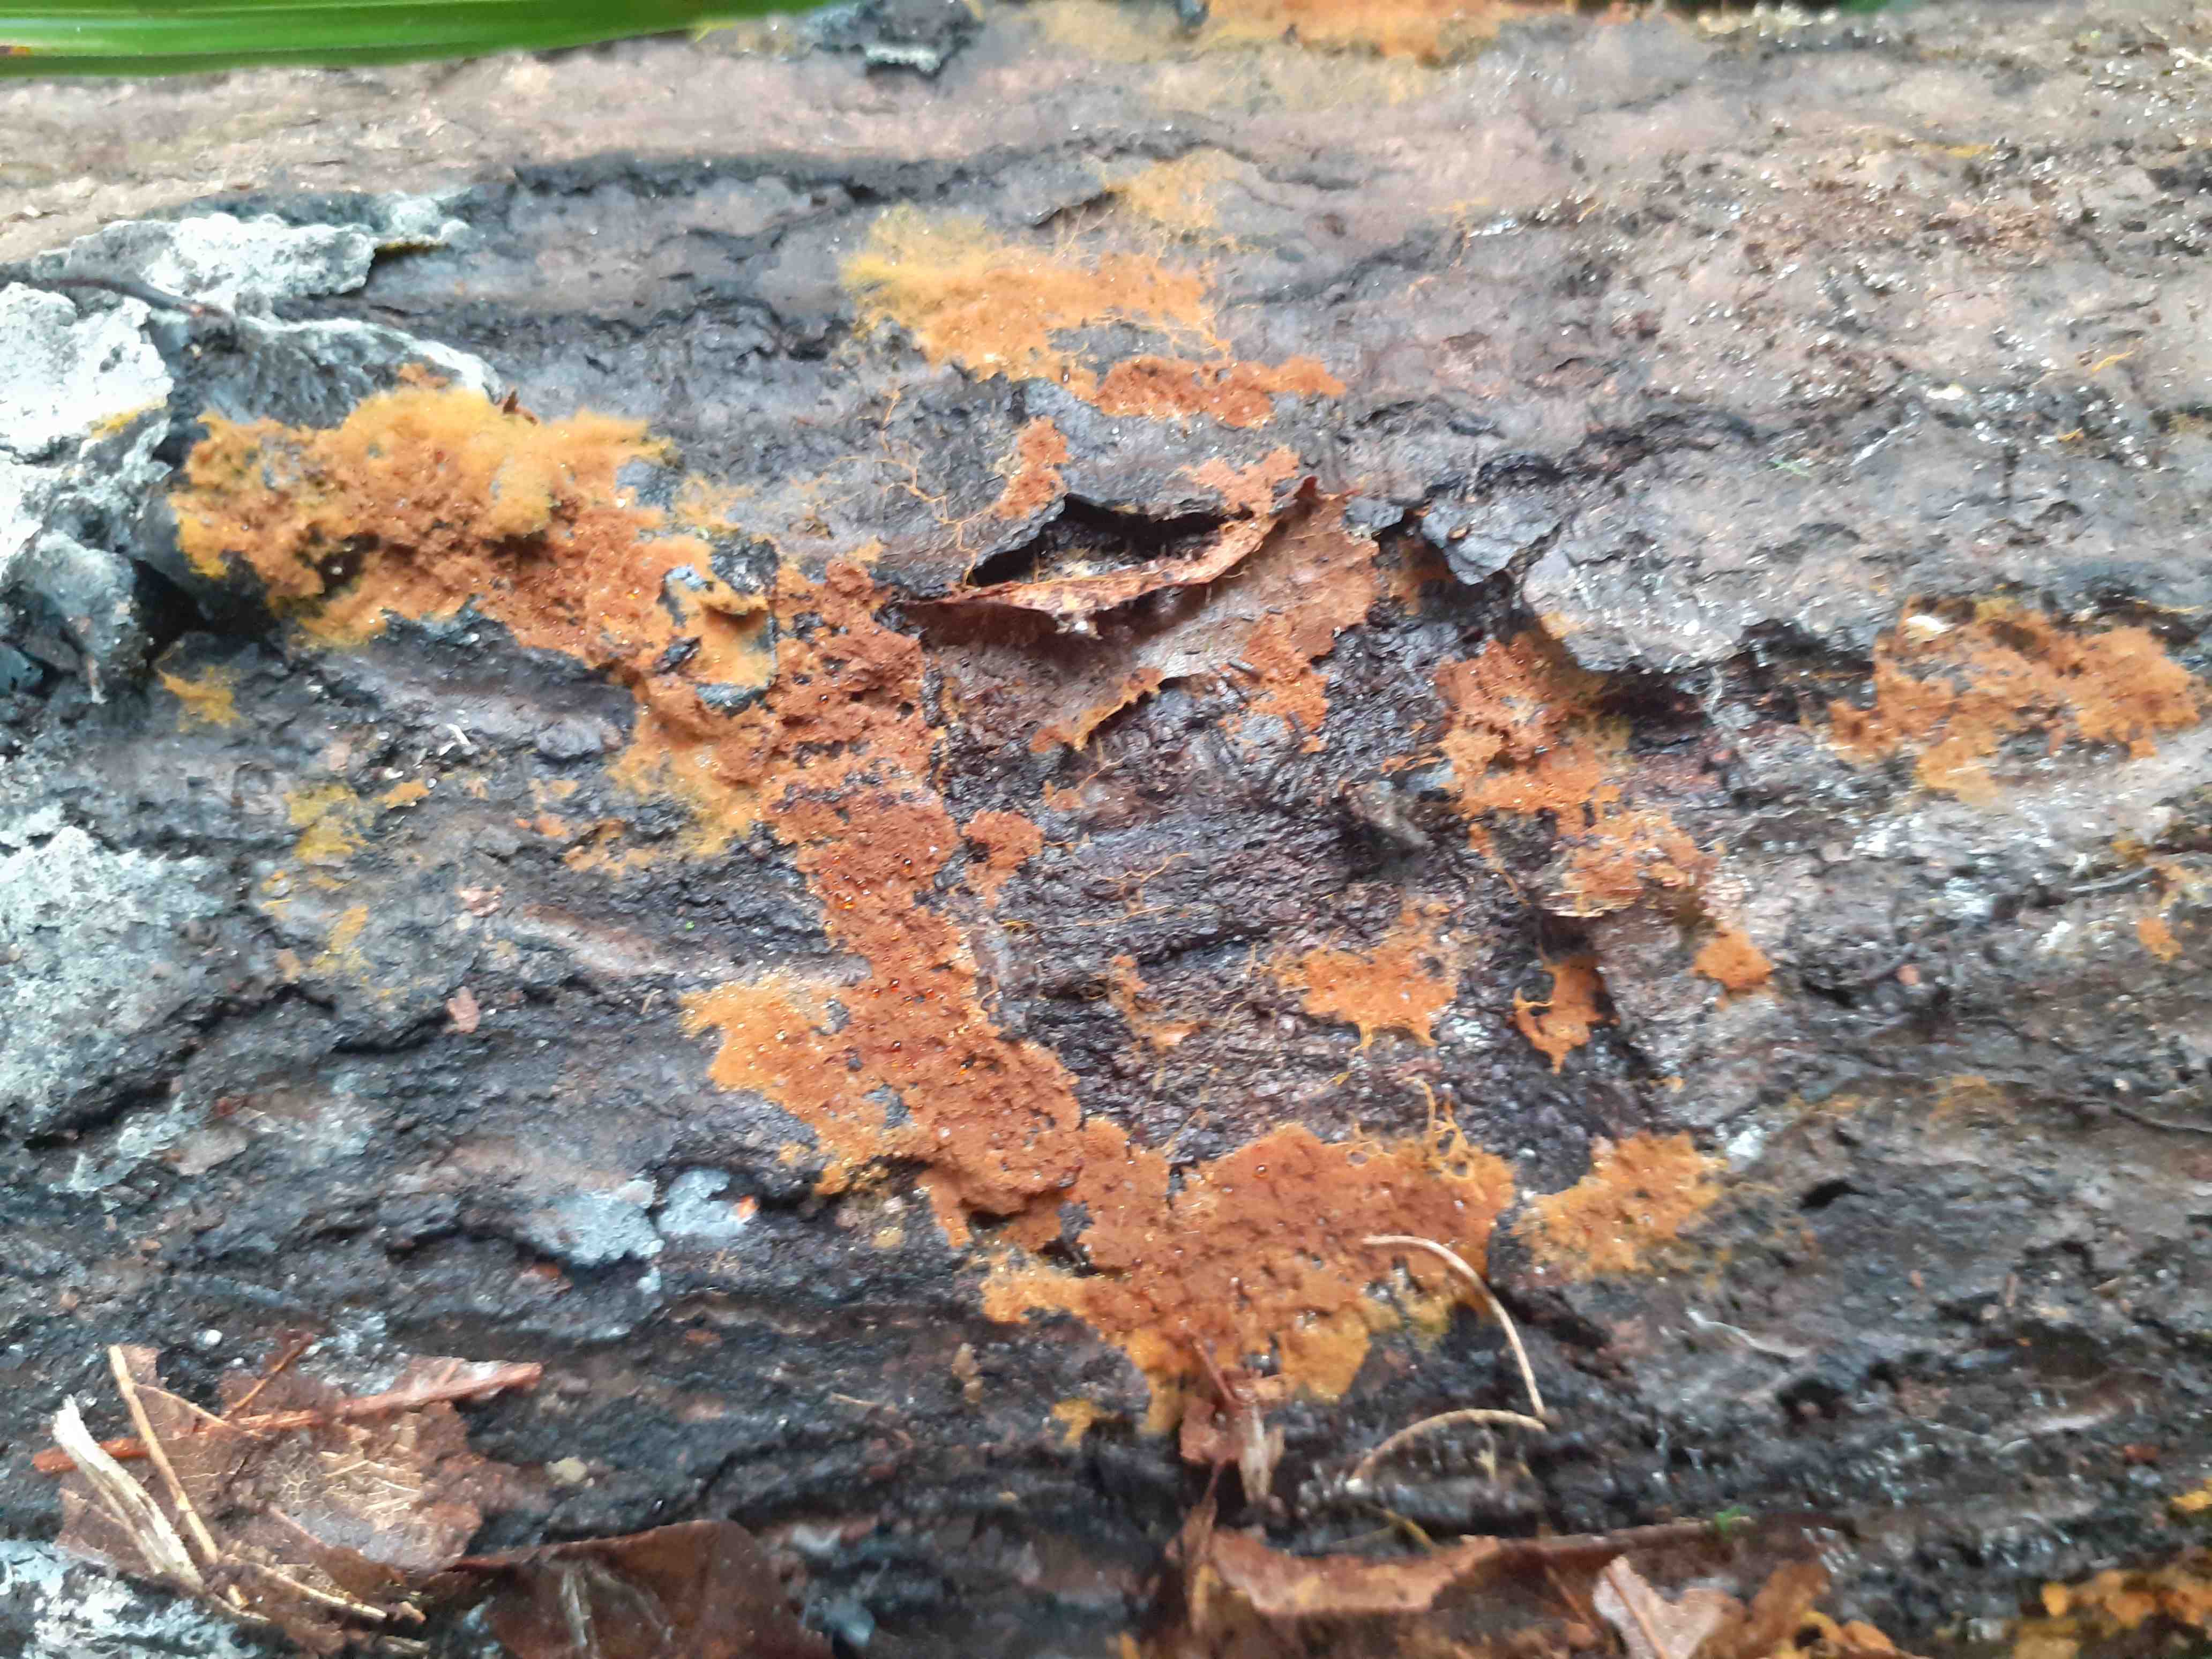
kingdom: Fungi
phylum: Basidiomycota
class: Agaricomycetes
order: Thelephorales
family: Thelephoraceae
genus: Tomentella
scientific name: Tomentella
